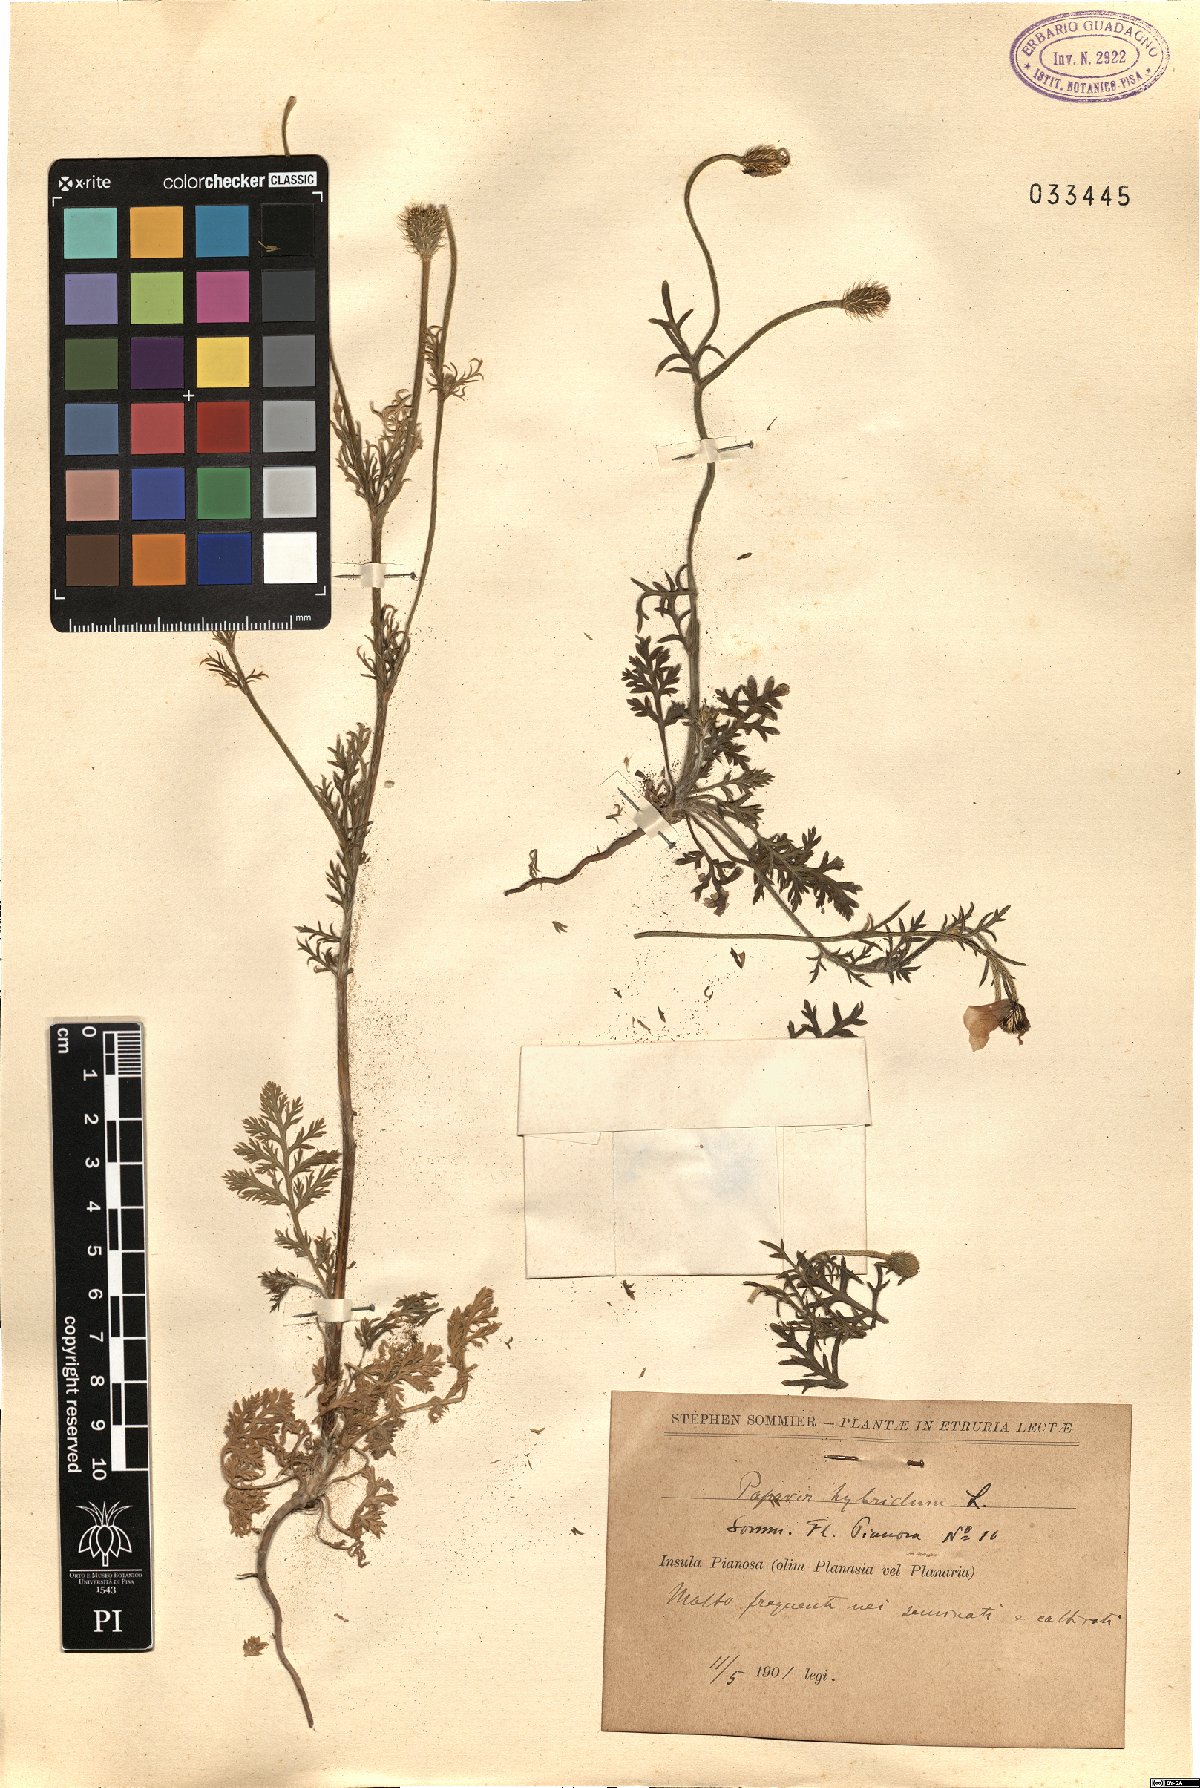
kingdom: Plantae
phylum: Tracheophyta
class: Magnoliopsida
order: Ranunculales
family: Papaveraceae
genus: Roemeria
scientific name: Roemeria hispida
